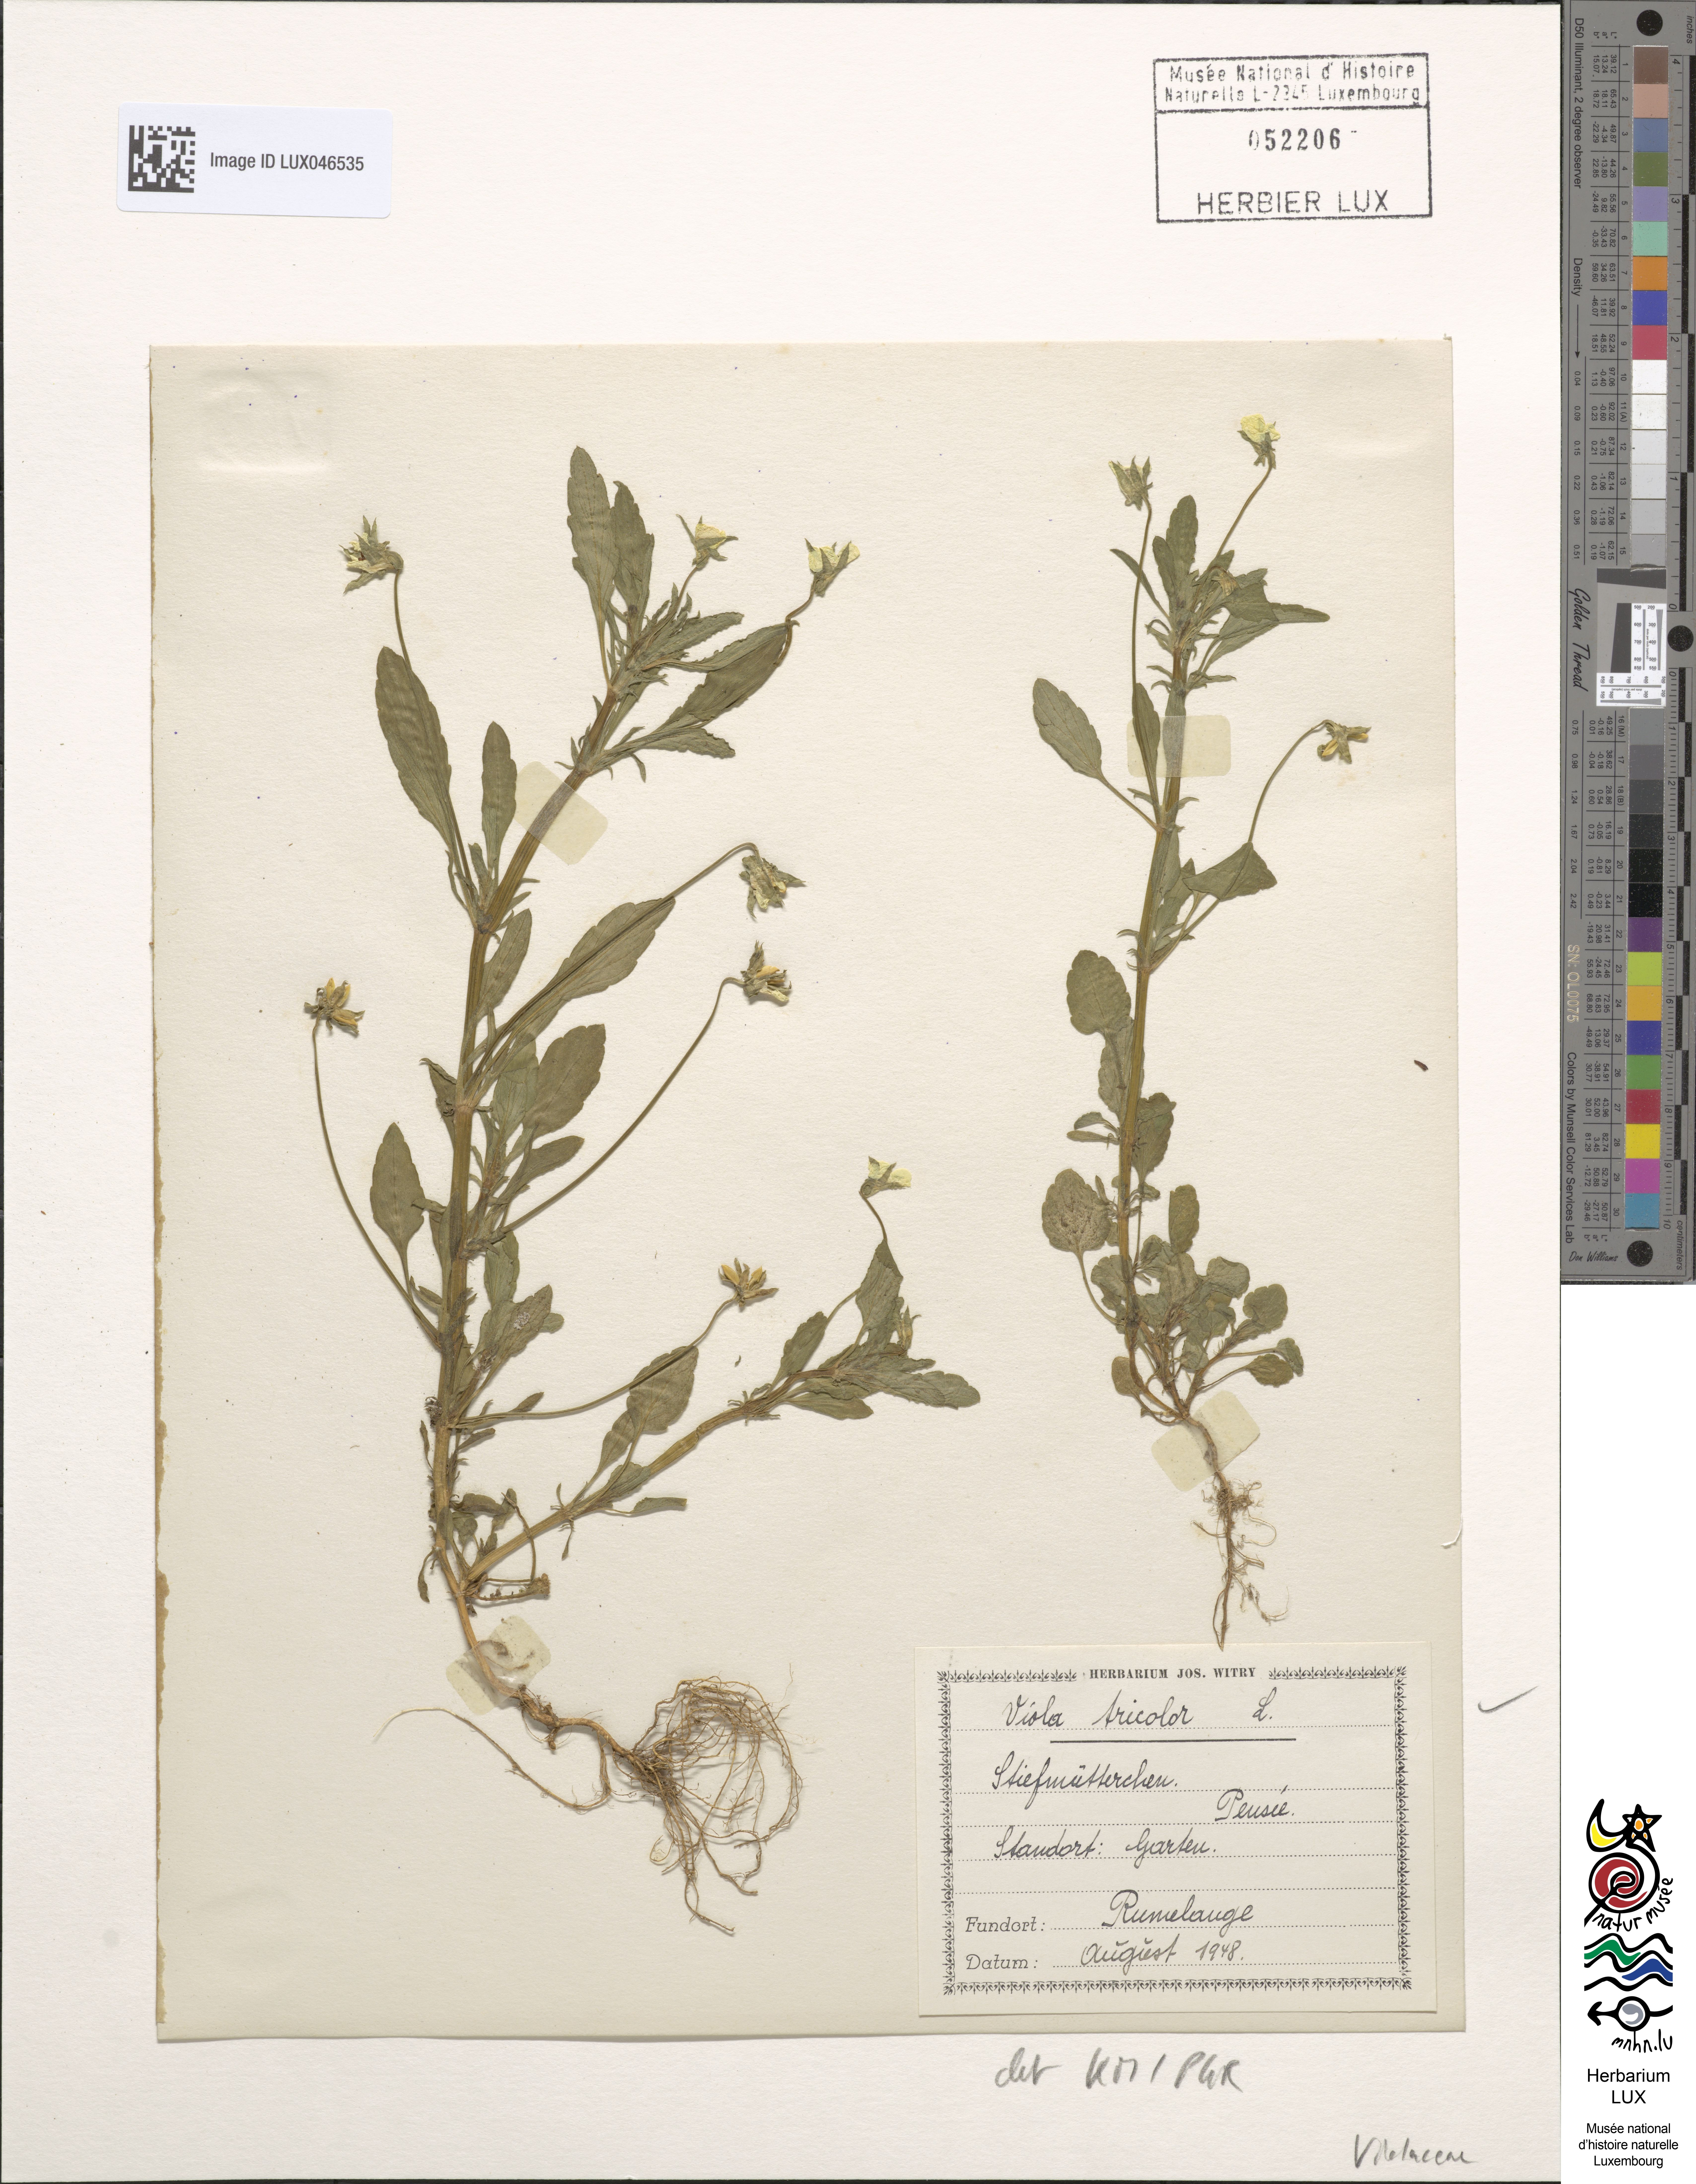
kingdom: Plantae
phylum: Tracheophyta
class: Magnoliopsida
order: Malpighiales
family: Violaceae
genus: Viola
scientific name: Viola tricolor
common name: Pansy
